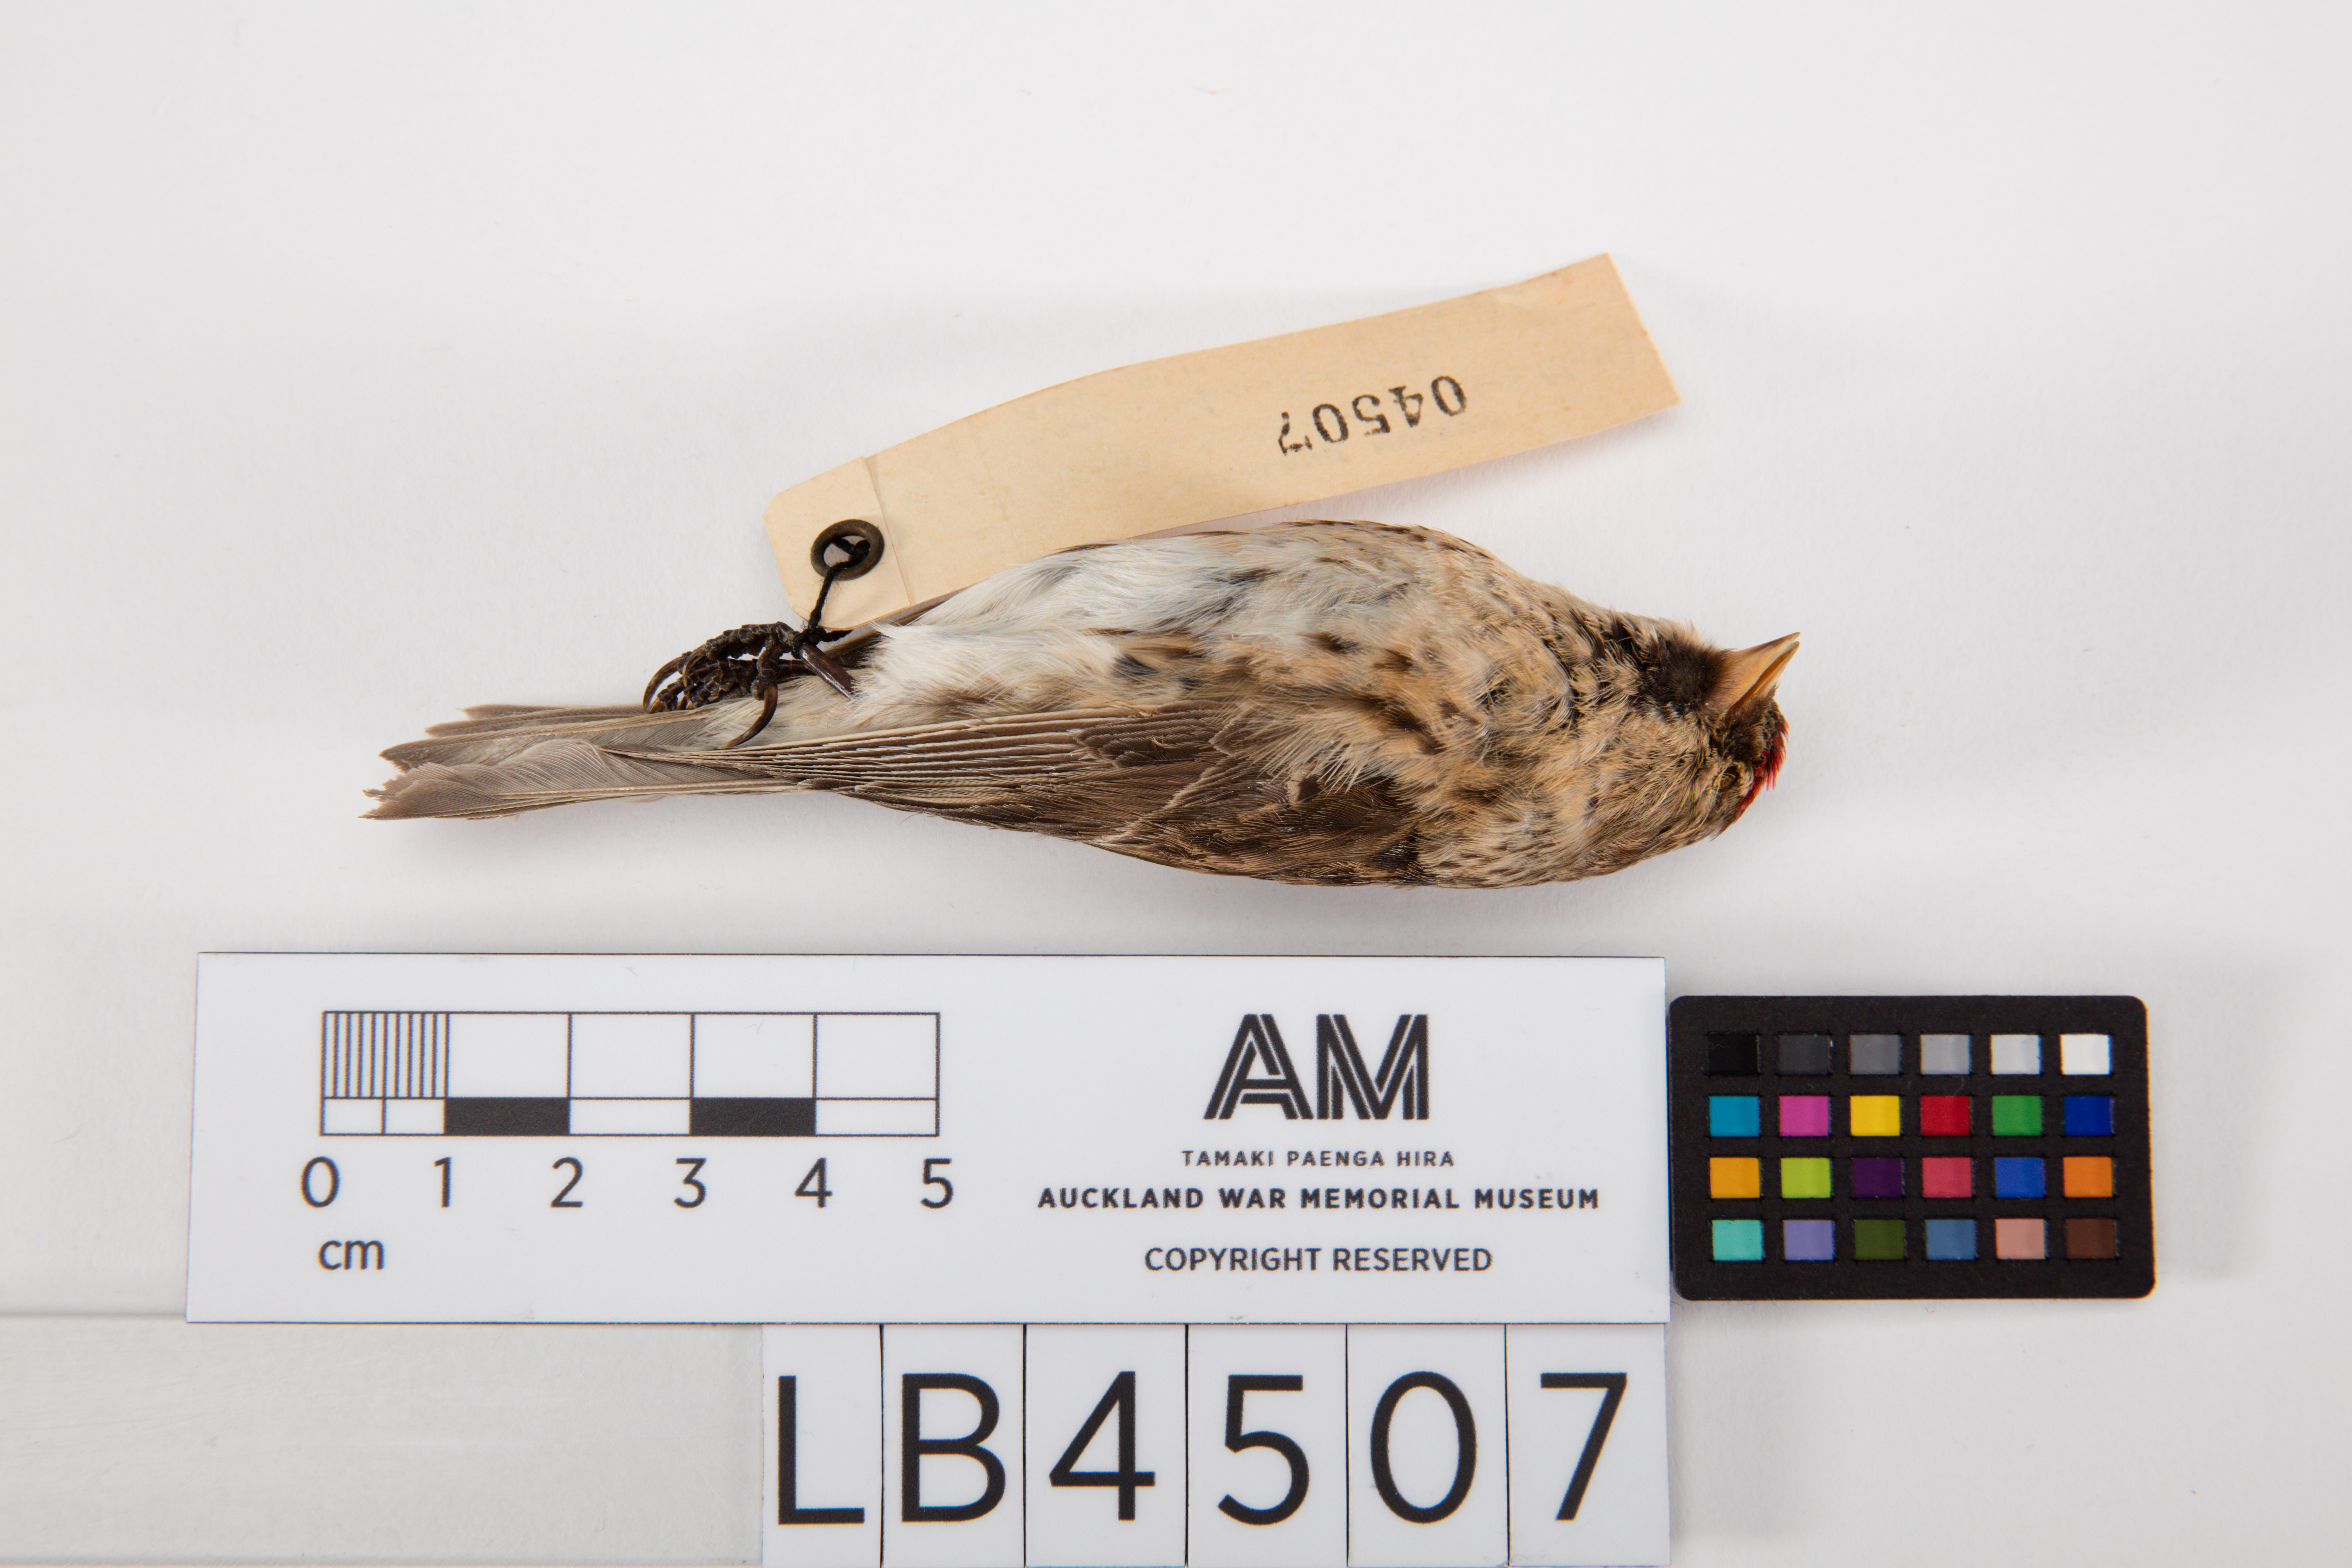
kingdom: Animalia
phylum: Chordata
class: Aves
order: Passeriformes
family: Fringillidae
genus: Acanthis
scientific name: Acanthis flammea
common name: Common redpoll
